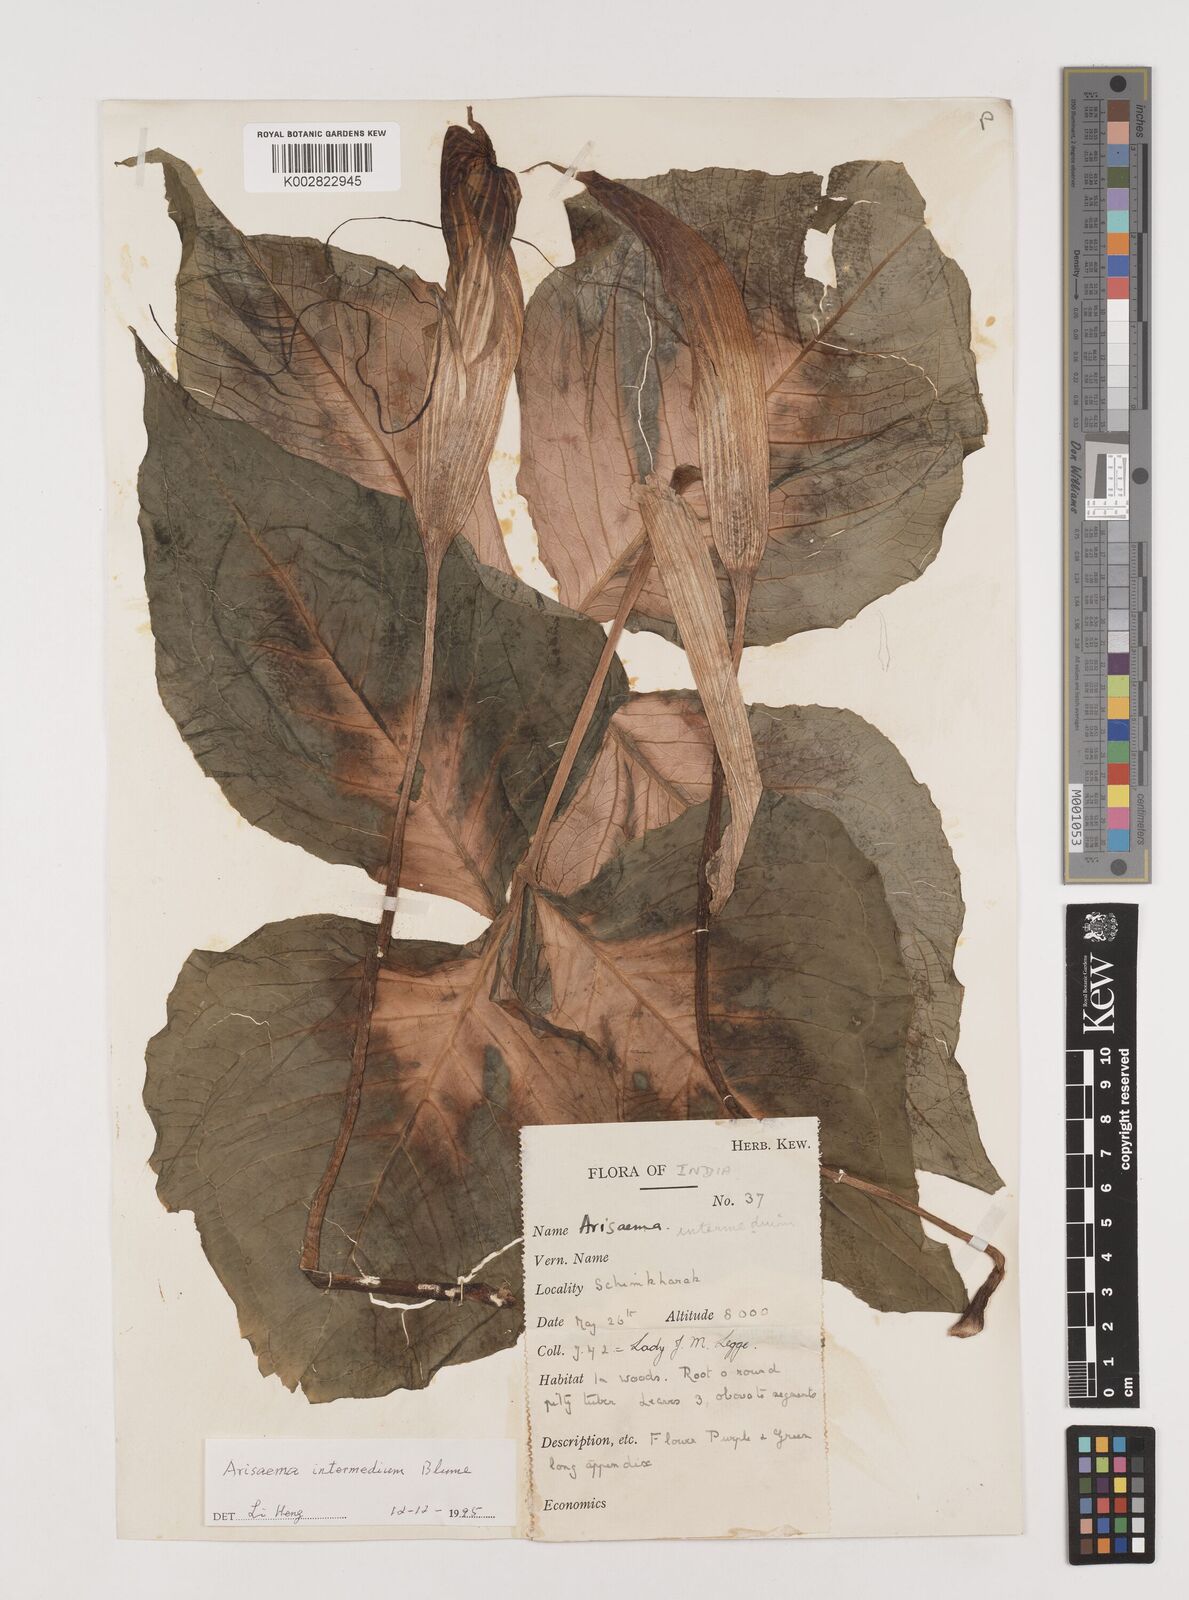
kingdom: Plantae
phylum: Tracheophyta
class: Liliopsida
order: Alismatales
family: Araceae
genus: Arisaema
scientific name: Arisaema intermedium
